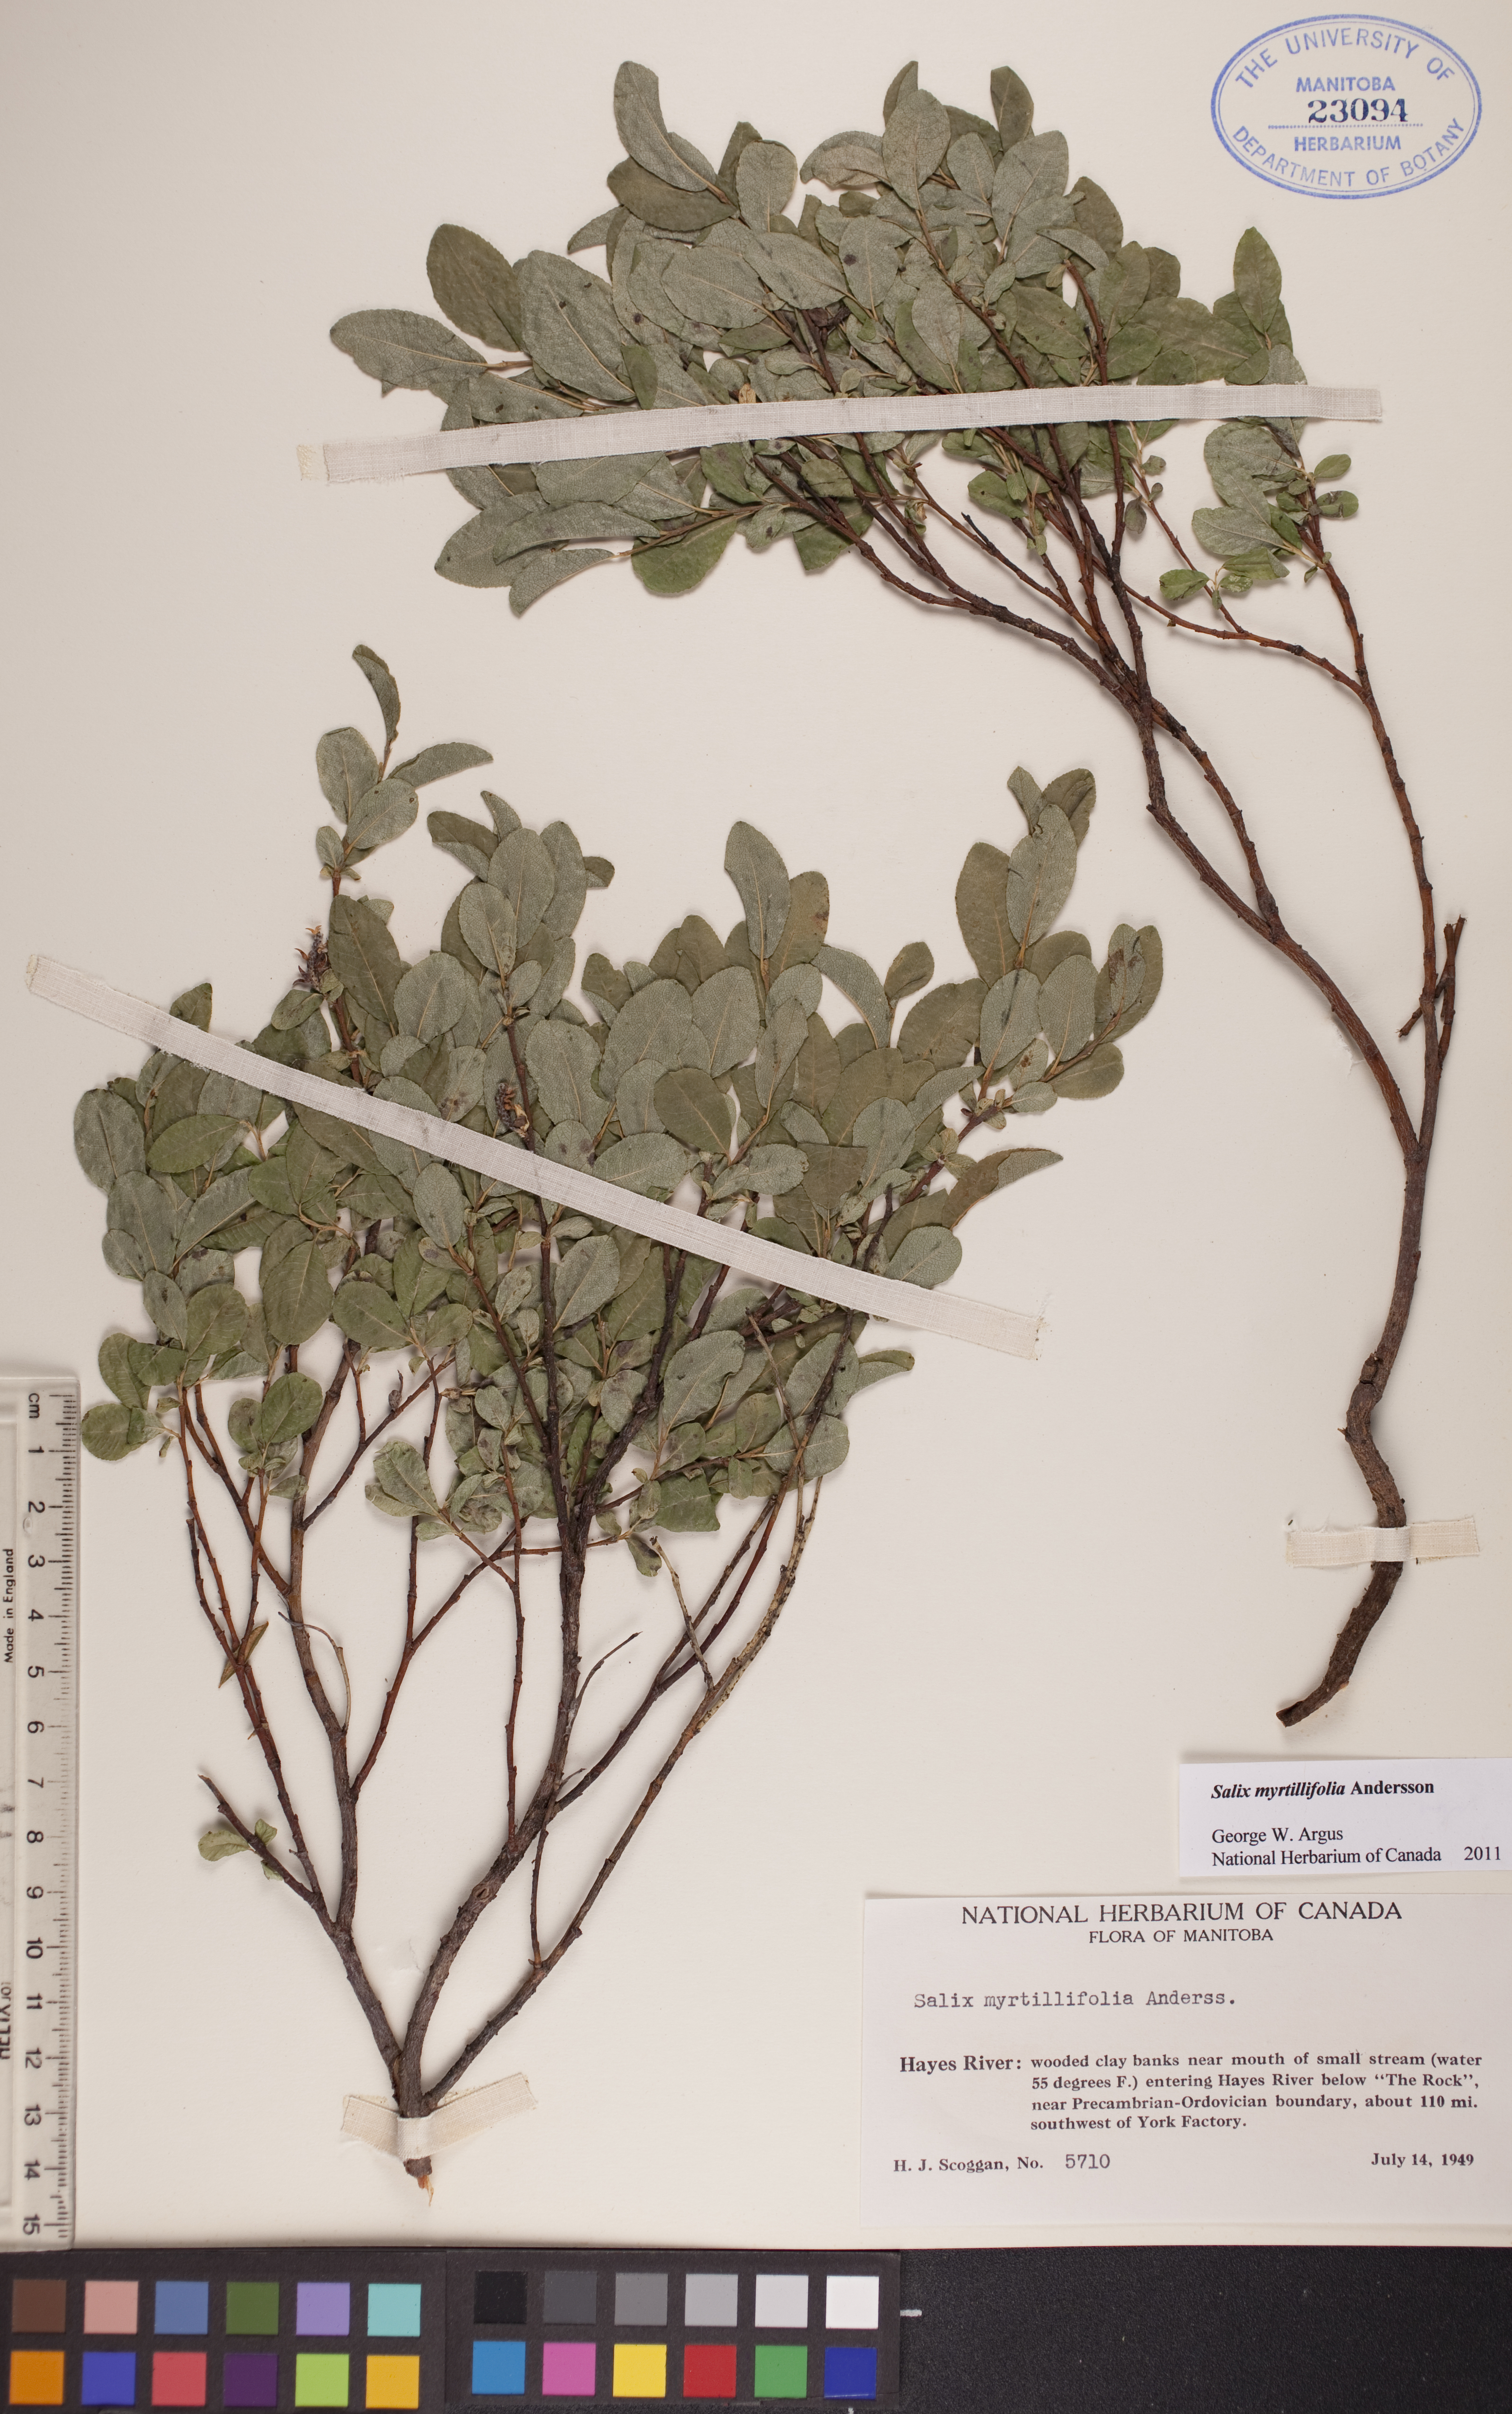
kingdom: Plantae
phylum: Tracheophyta
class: Magnoliopsida
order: Malpighiales
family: Salicaceae
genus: Salix
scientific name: Salix myrtillifolia
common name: Bilberry willow
